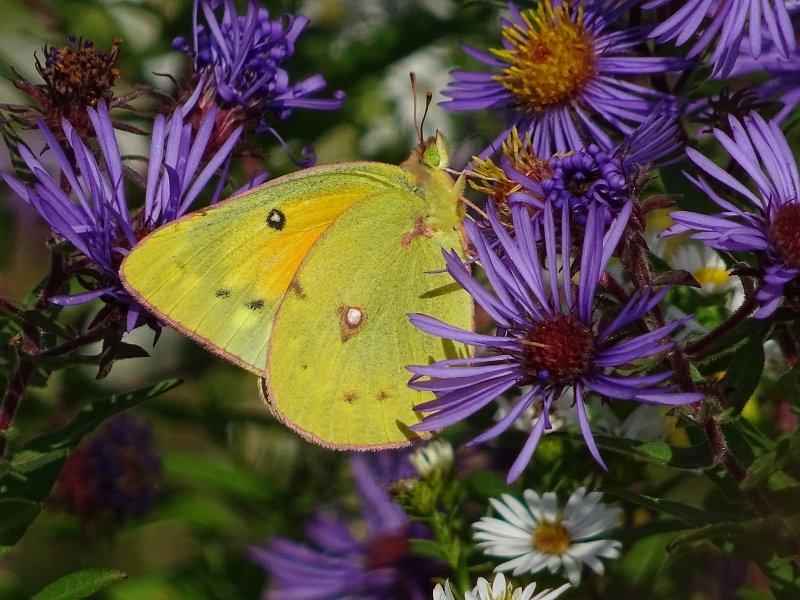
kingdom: Animalia
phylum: Arthropoda
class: Insecta
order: Lepidoptera
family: Pieridae
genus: Colias
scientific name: Colias eurytheme
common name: Orange Sulphur
